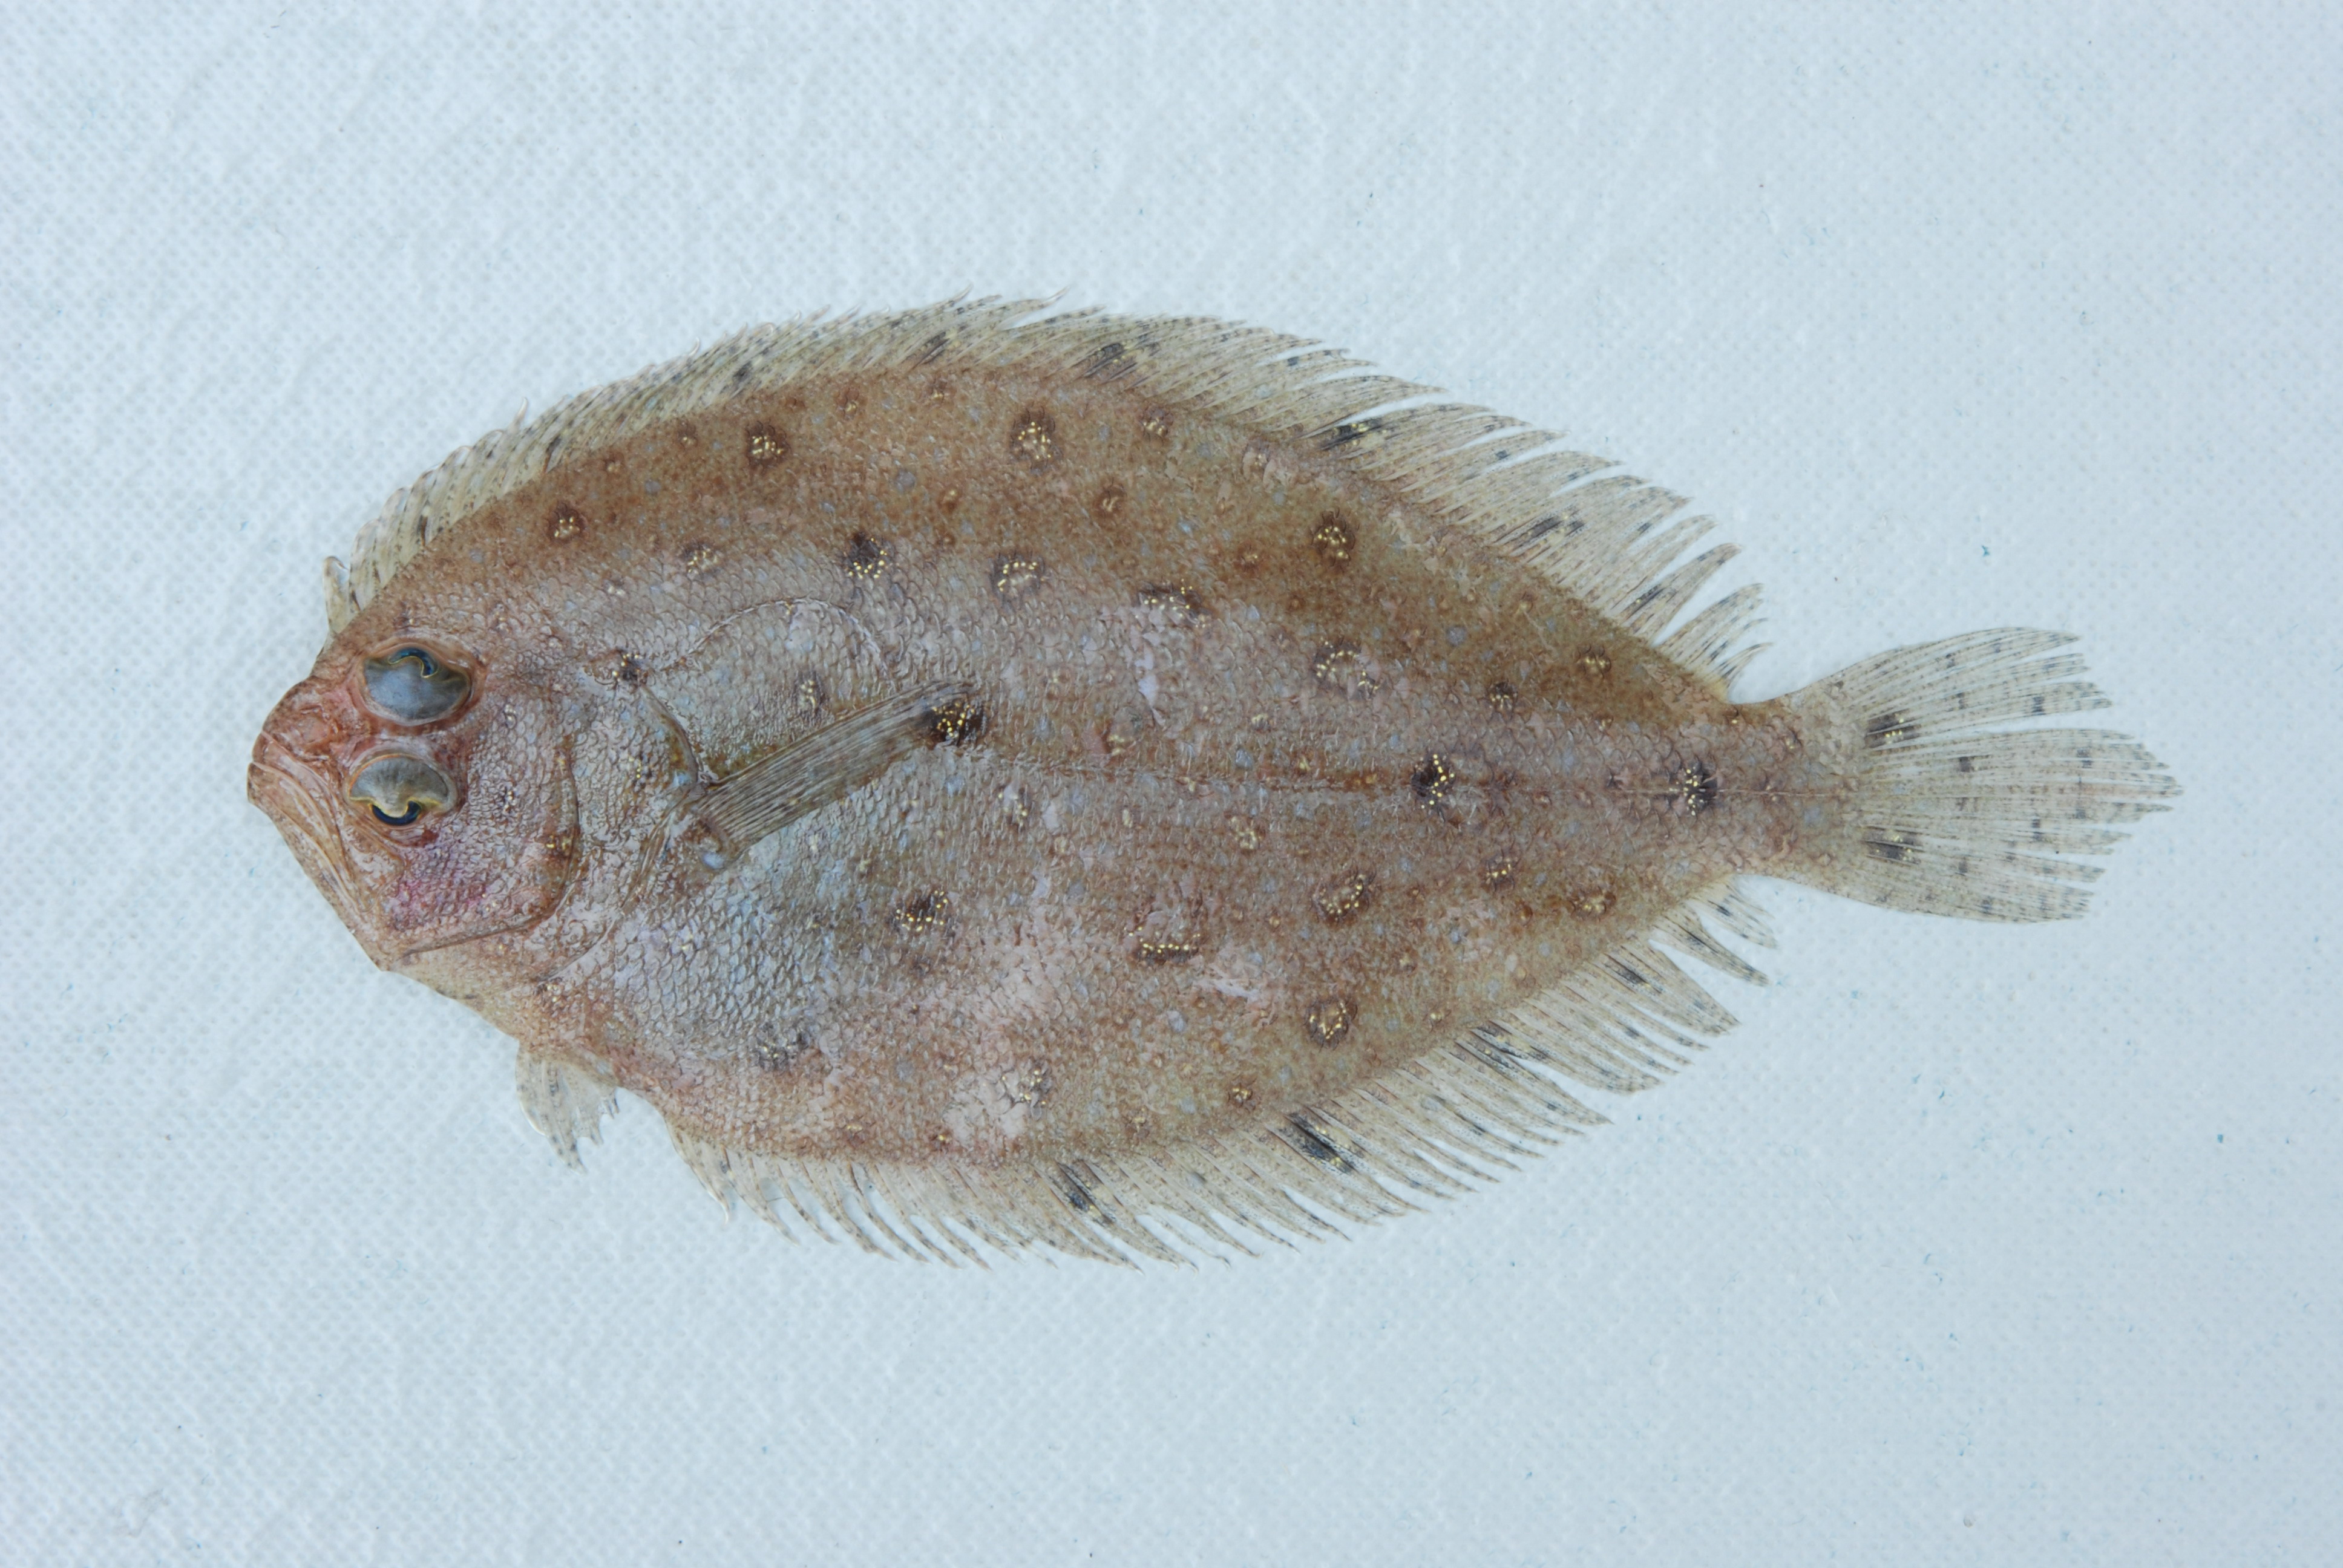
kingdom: Animalia
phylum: Chordata
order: Pleuronectiformes
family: Paralichthyidae
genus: Pseudorhombus
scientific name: Pseudorhombus elevatus
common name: Deep flounder
